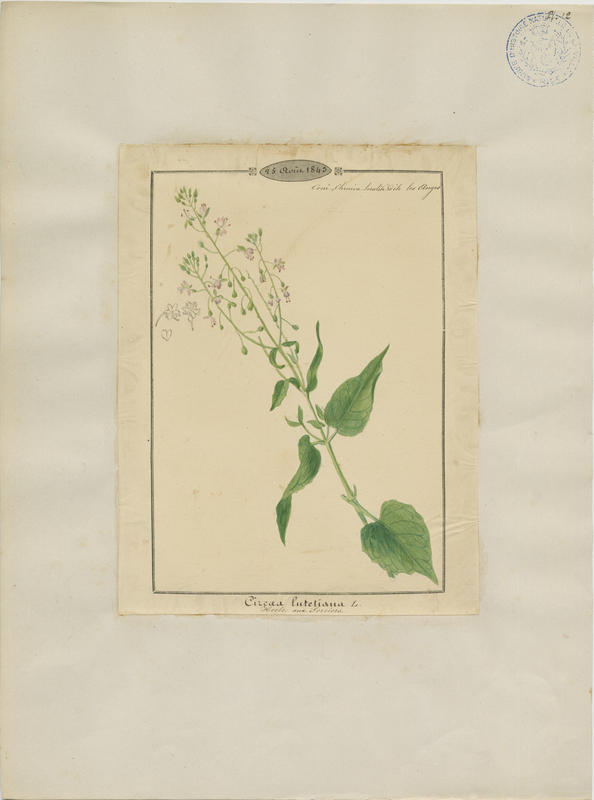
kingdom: Plantae
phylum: Tracheophyta
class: Magnoliopsida
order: Myrtales
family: Onagraceae
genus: Circaea
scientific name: Circaea lutetiana
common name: Enchanter's-nightshade
